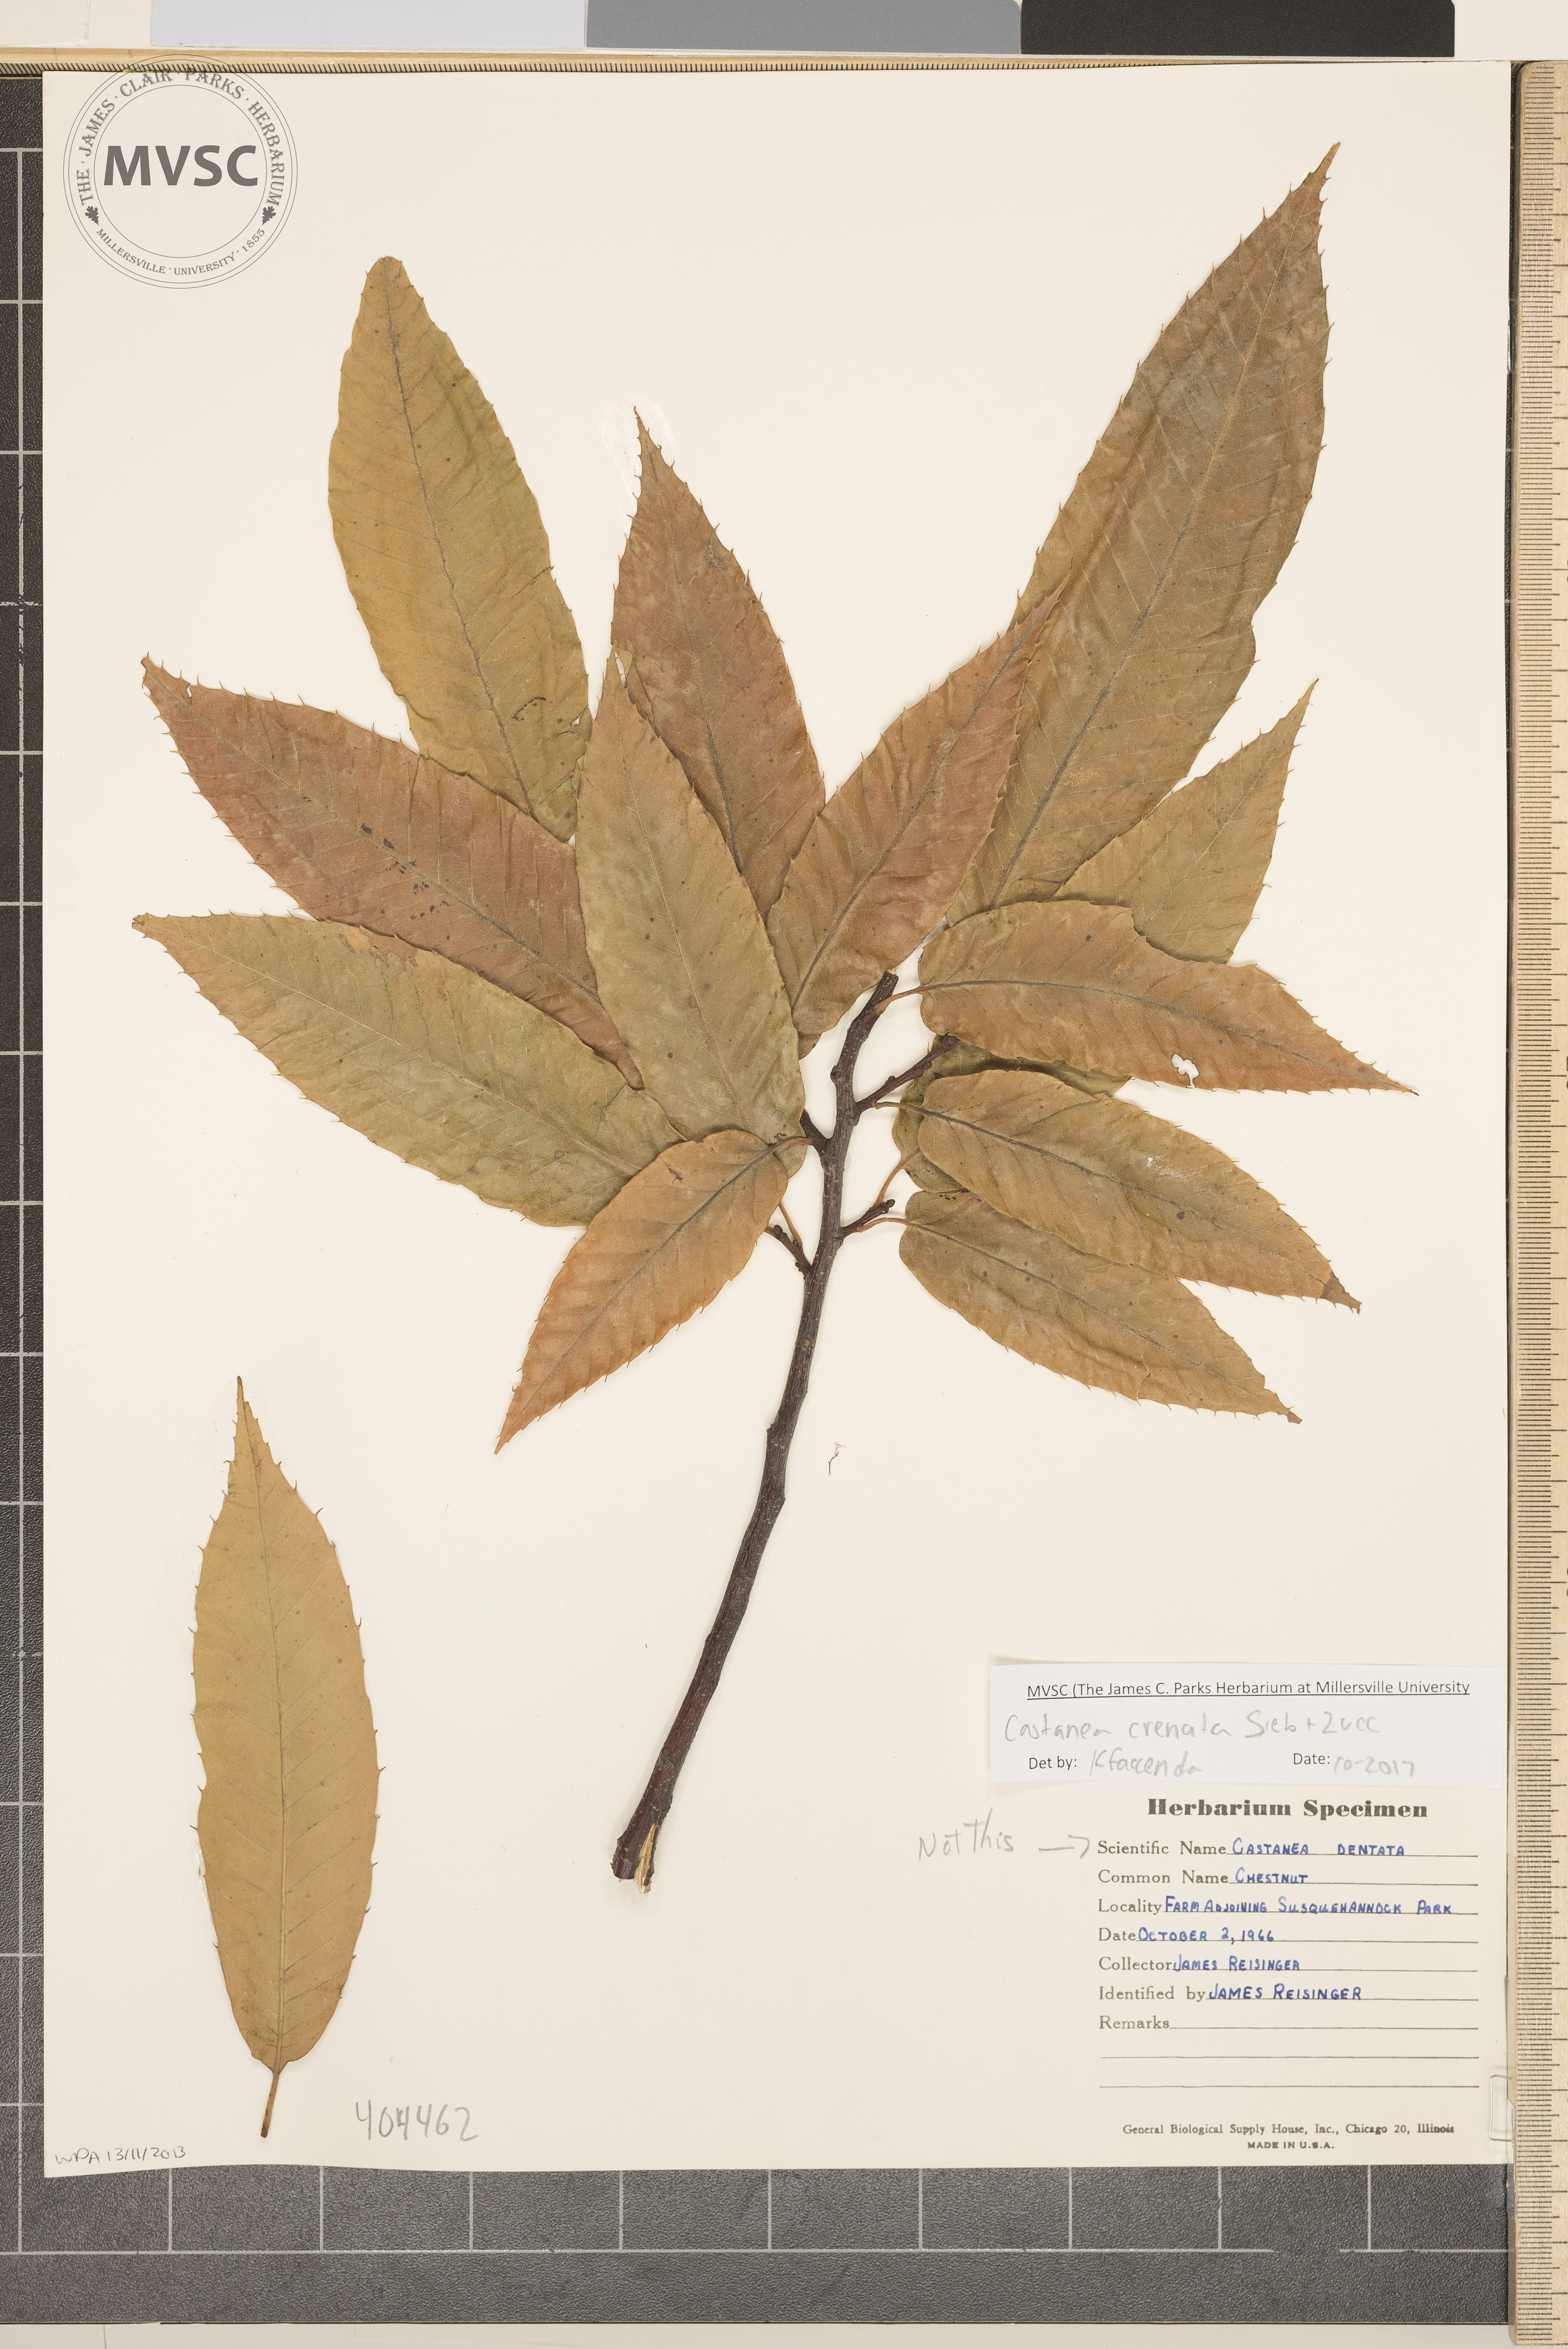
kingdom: Plantae
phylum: Tracheophyta
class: Magnoliopsida
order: Fagales
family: Fagaceae
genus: Castanea
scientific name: Castanea crenata
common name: Chestnut
